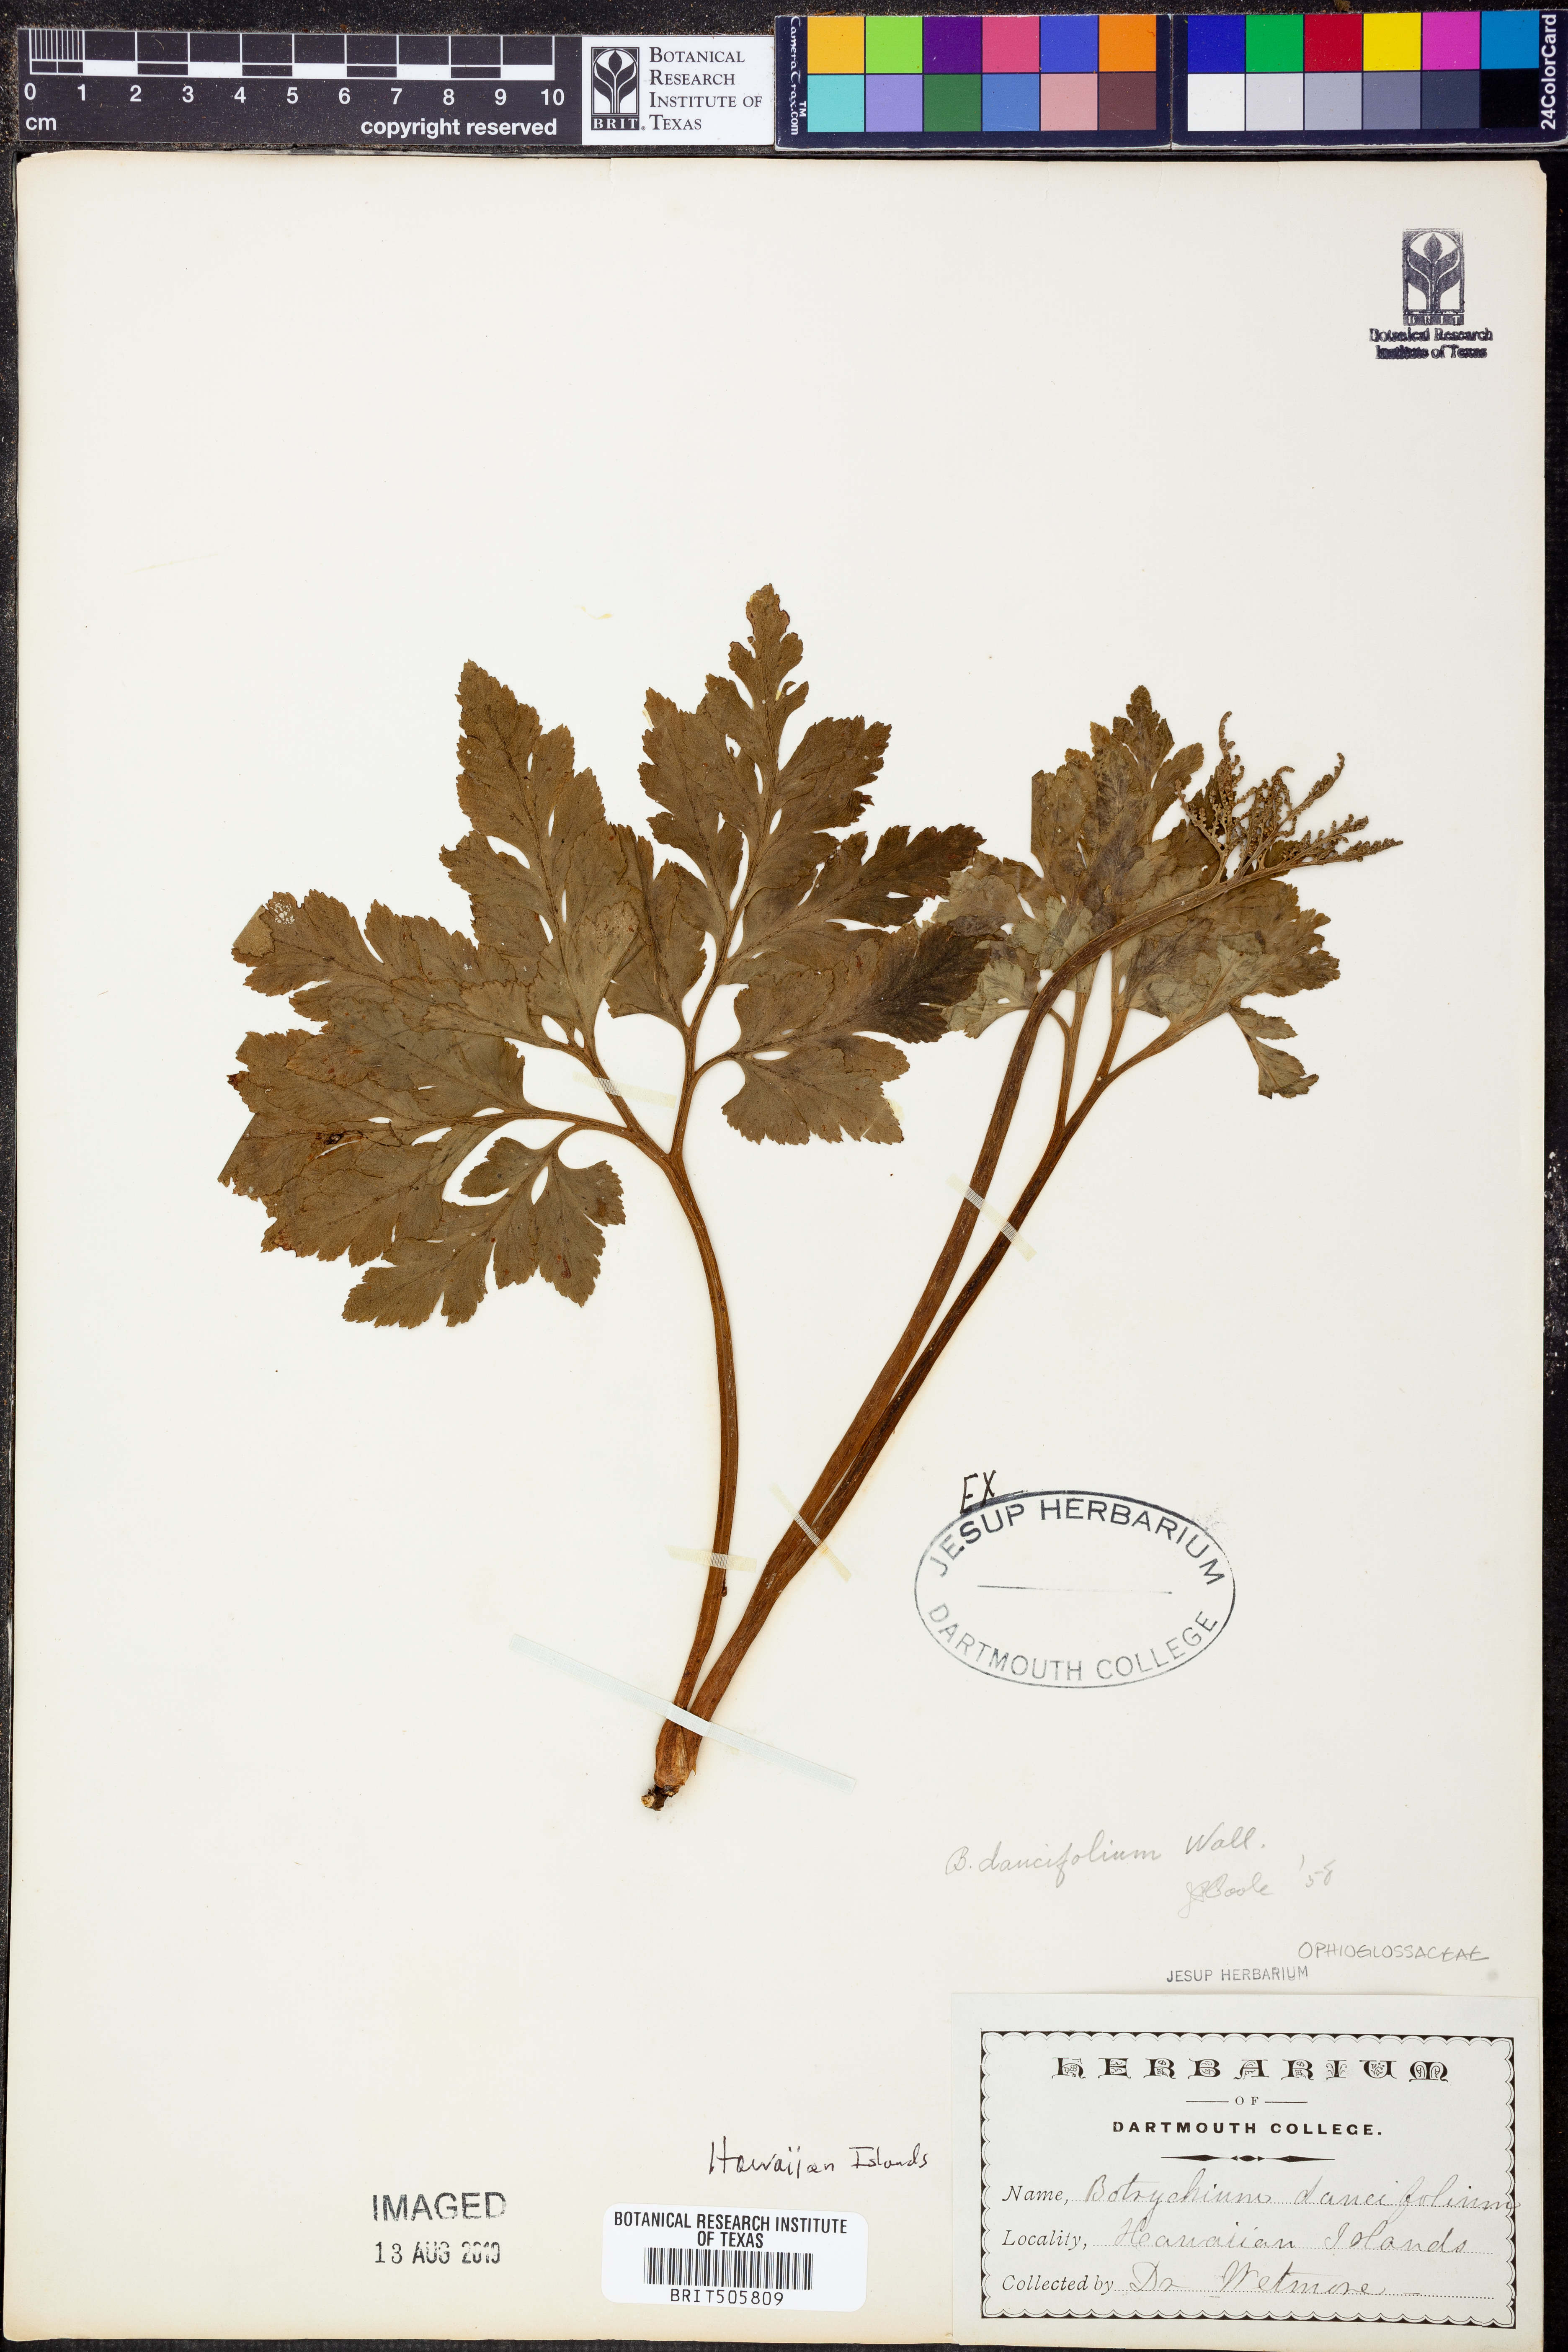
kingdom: Plantae
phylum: Tracheophyta
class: Polypodiopsida
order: Ophioglossales
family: Ophioglossaceae
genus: Sceptridium
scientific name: Sceptridium daucifolium
